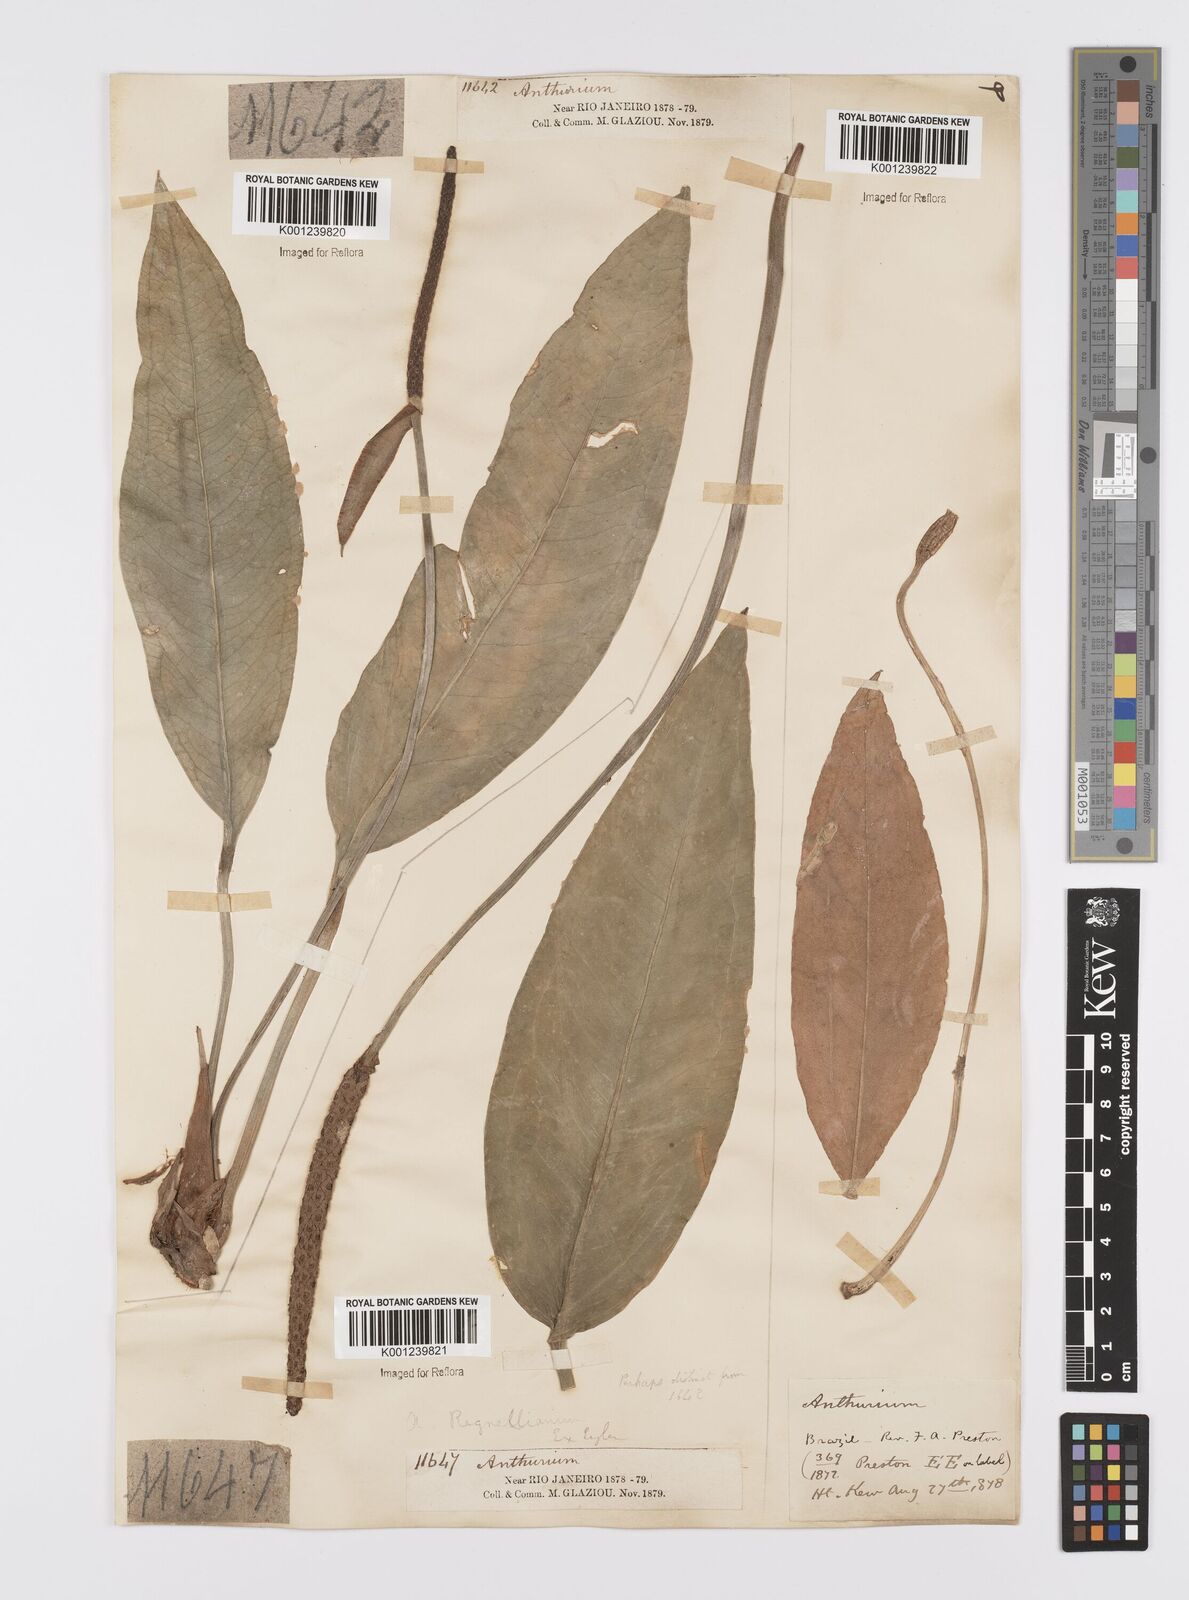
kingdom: Plantae
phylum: Tracheophyta
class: Liliopsida
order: Alismatales
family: Araceae
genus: Anthurium
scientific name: Anthurium
